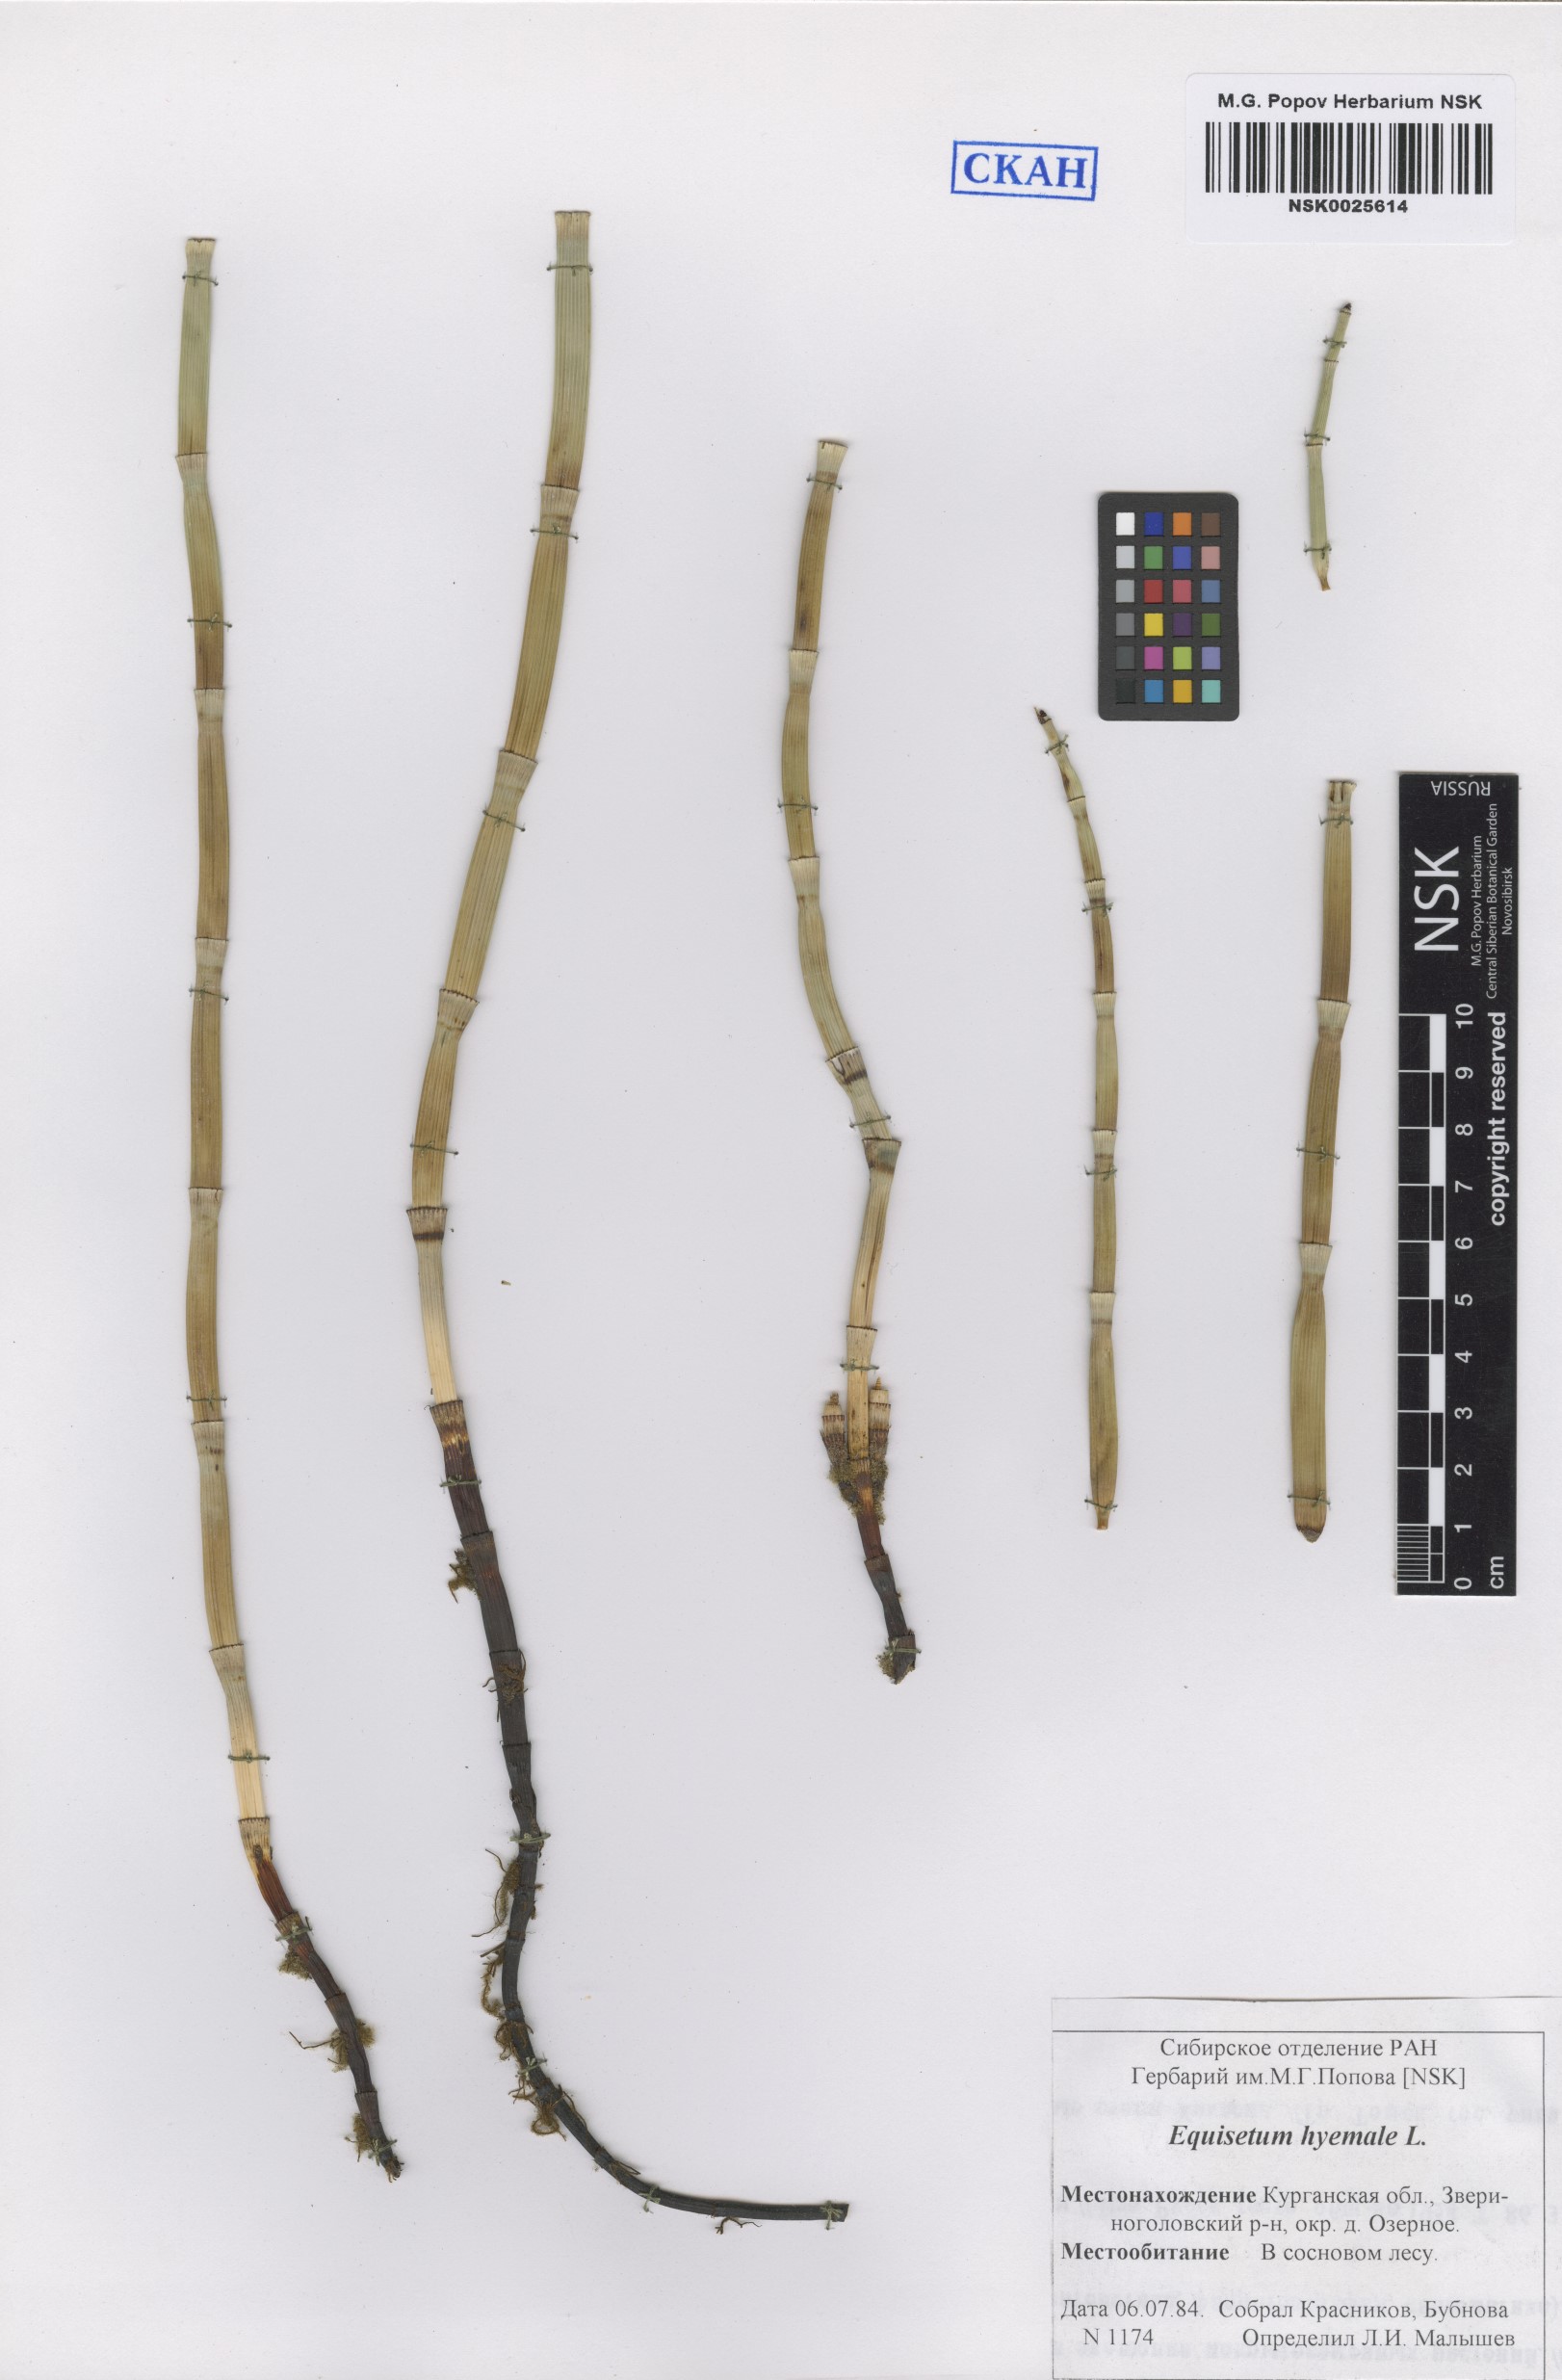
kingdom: Plantae
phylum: Tracheophyta
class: Polypodiopsida
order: Equisetales
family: Equisetaceae
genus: Equisetum
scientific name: Equisetum hyemale
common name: Rough horsetail
